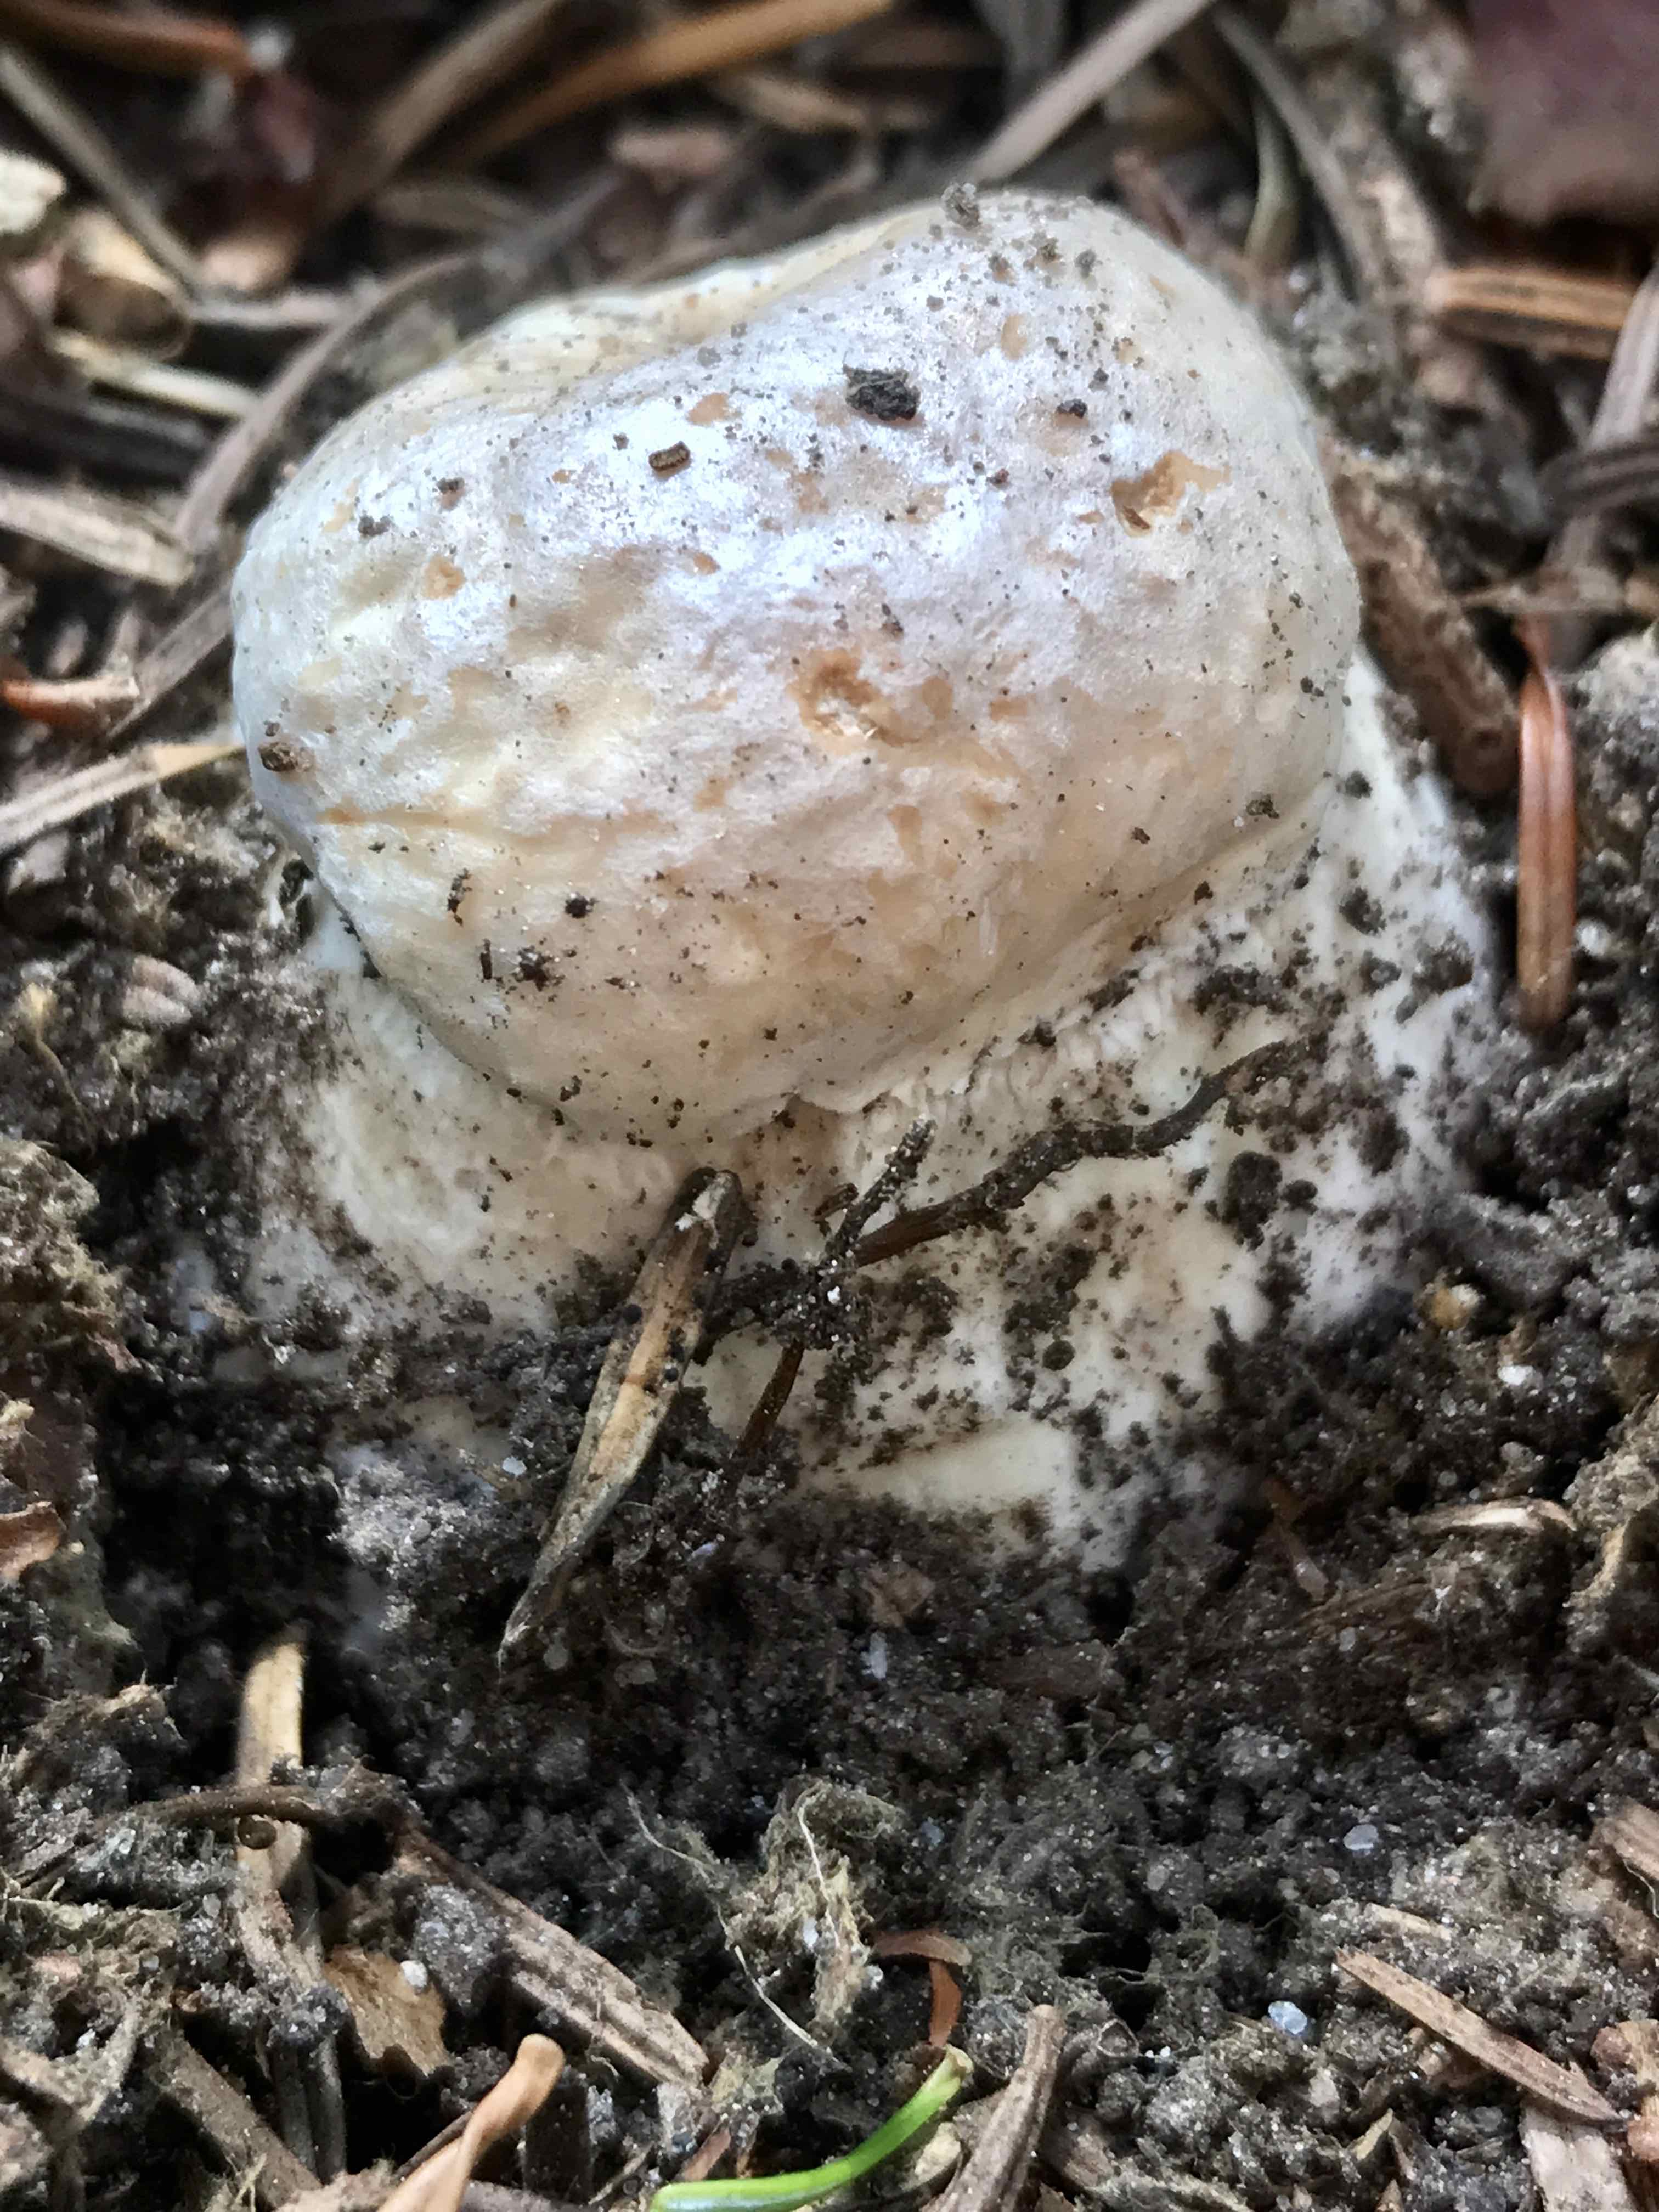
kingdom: Fungi
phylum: Basidiomycota
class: Agaricomycetes
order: Boletales
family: Boletaceae
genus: Boletus
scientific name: Boletus edulis
